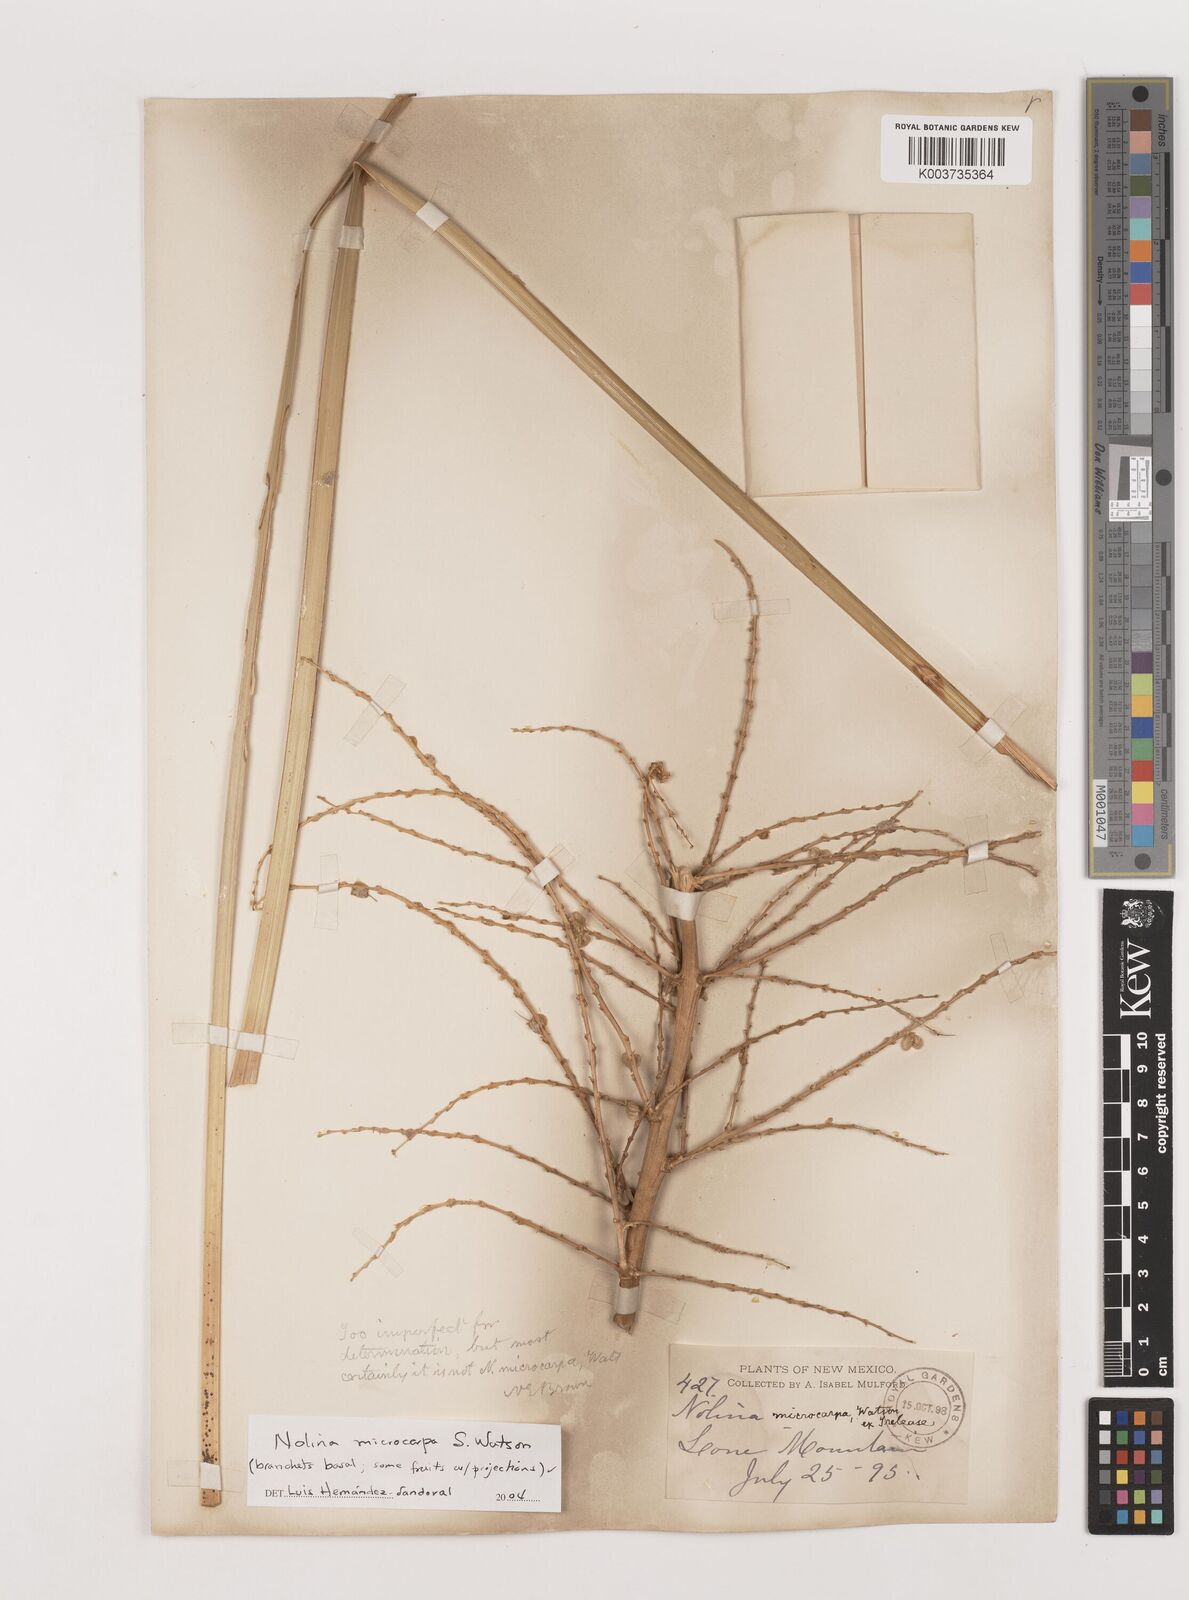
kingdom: Plantae
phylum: Tracheophyta
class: Liliopsida
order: Asparagales
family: Asparagaceae
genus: Nolina
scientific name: Nolina microcarpa
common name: Bear-grass
